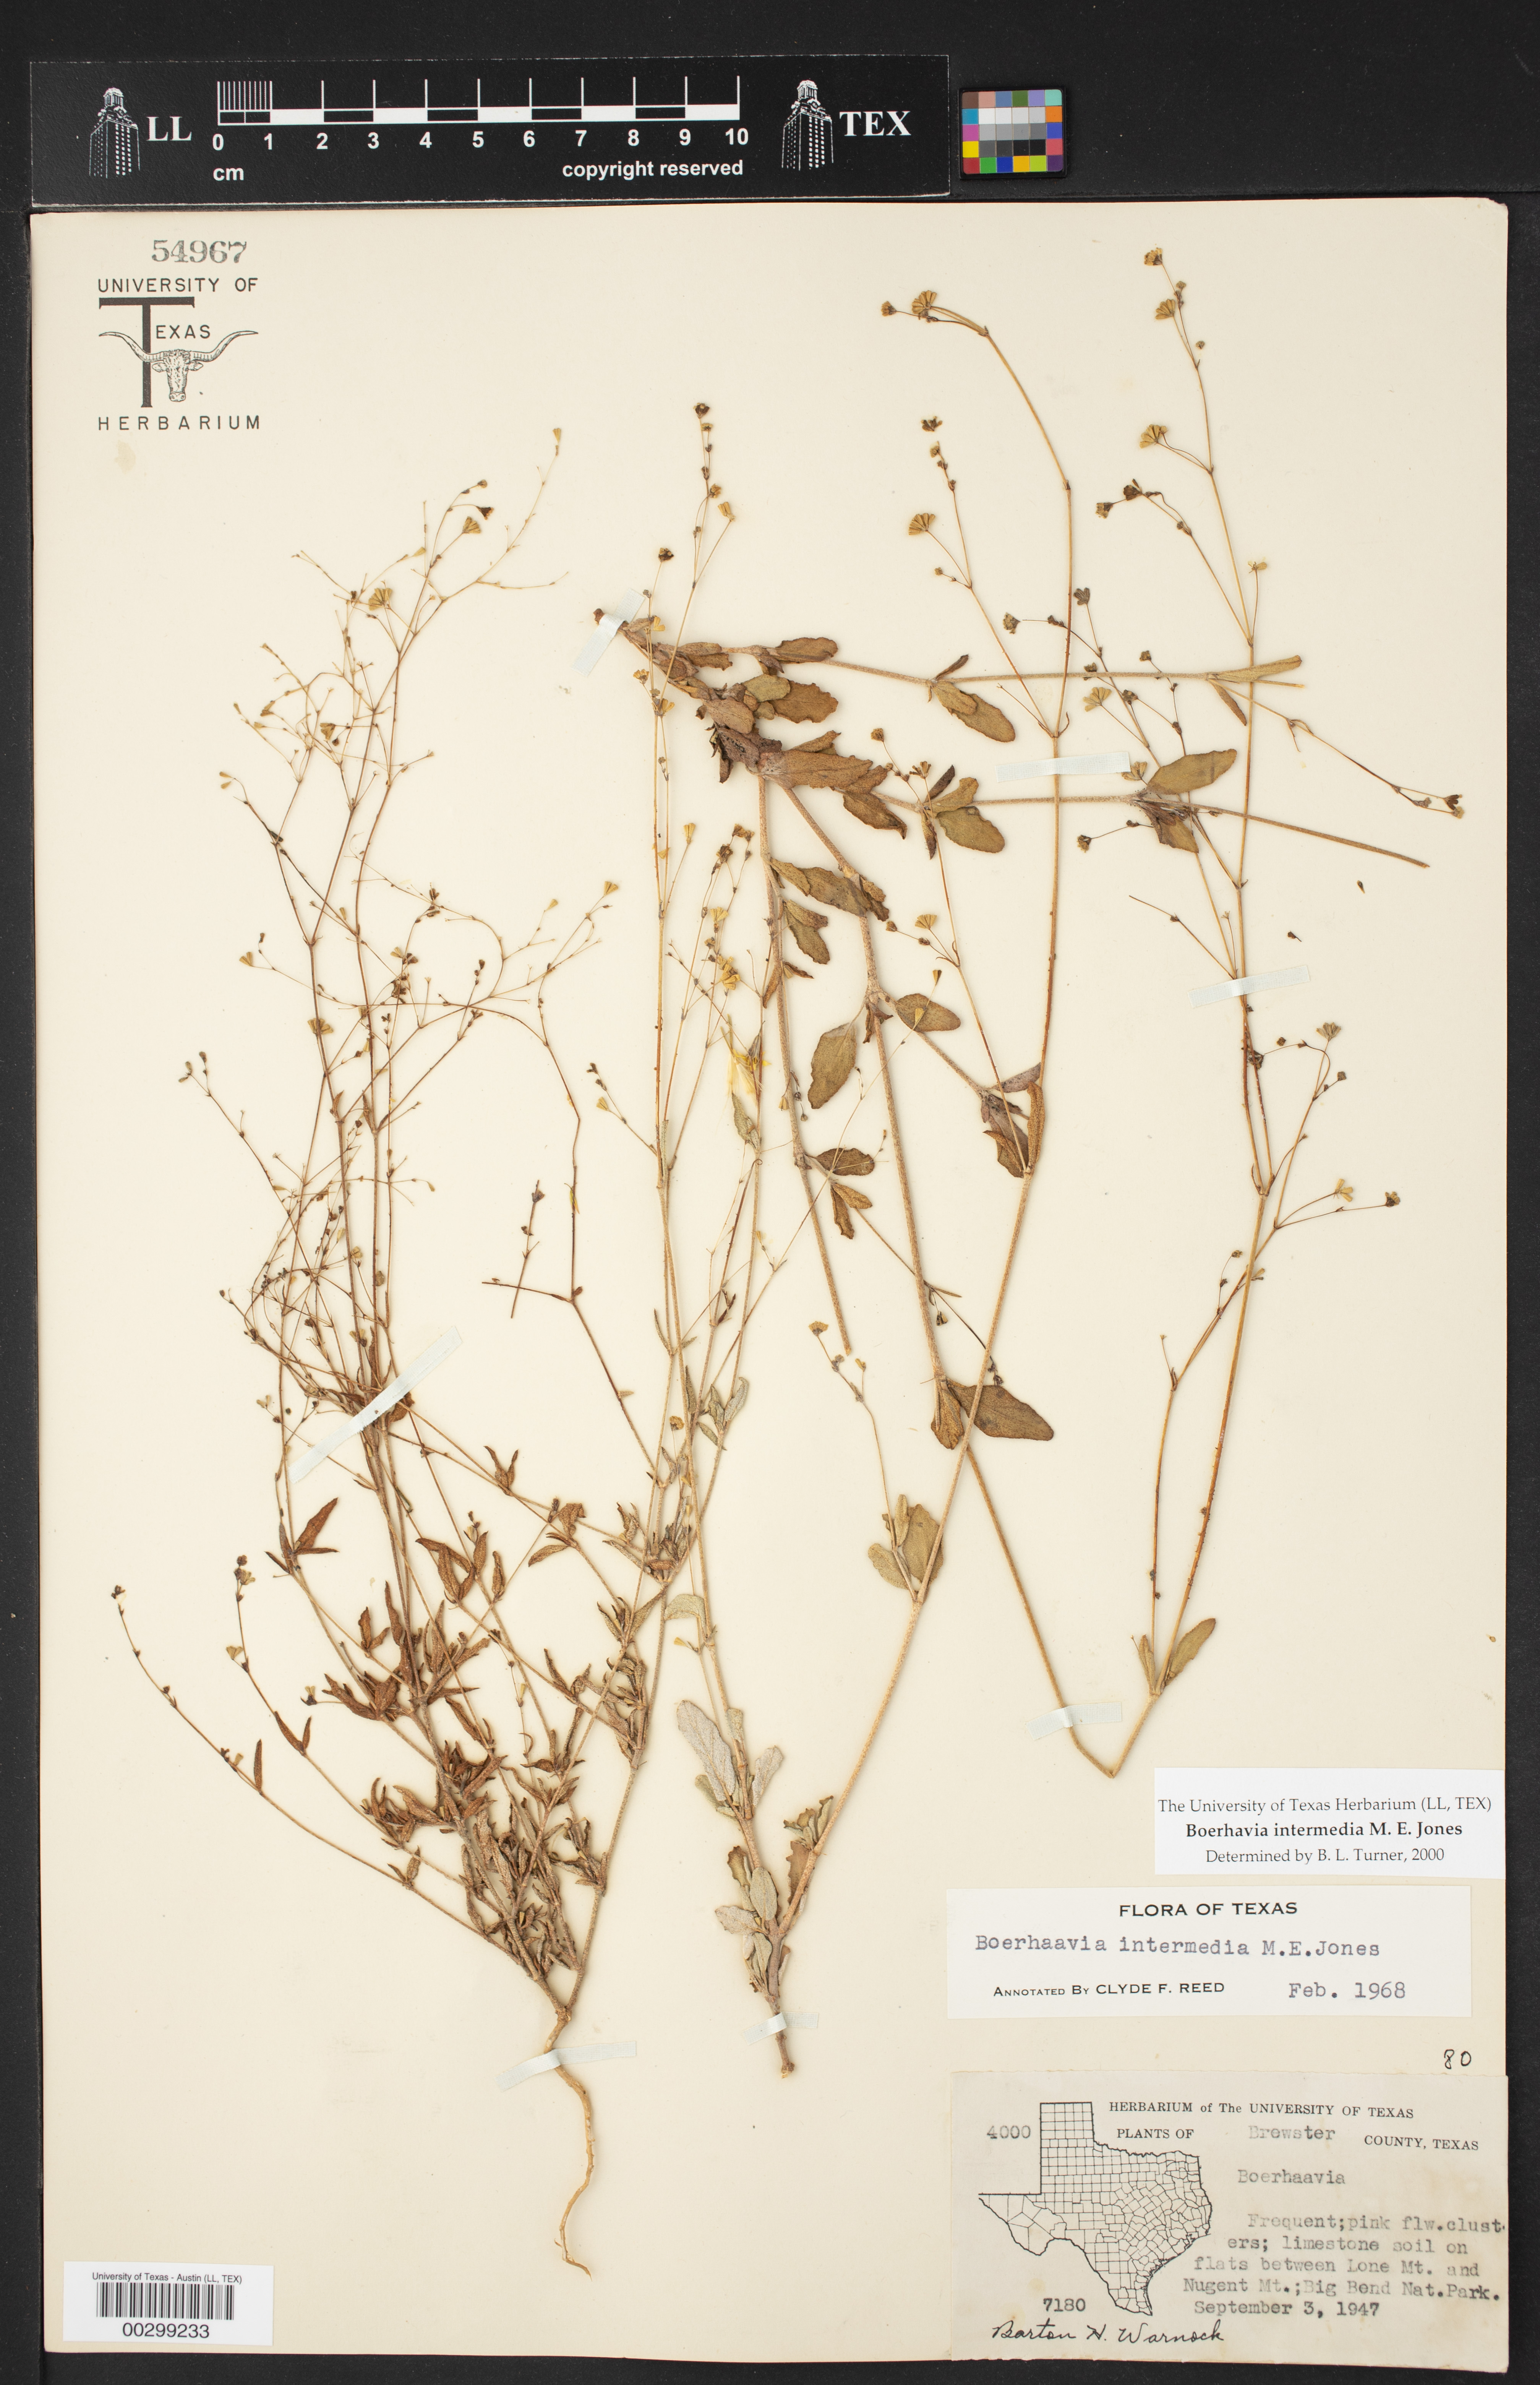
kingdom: Plantae
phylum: Tracheophyta
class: Magnoliopsida
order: Caryophyllales
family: Nyctaginaceae
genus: Boerhavia
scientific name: Boerhavia triquetra
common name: Creeping sticky-stem
